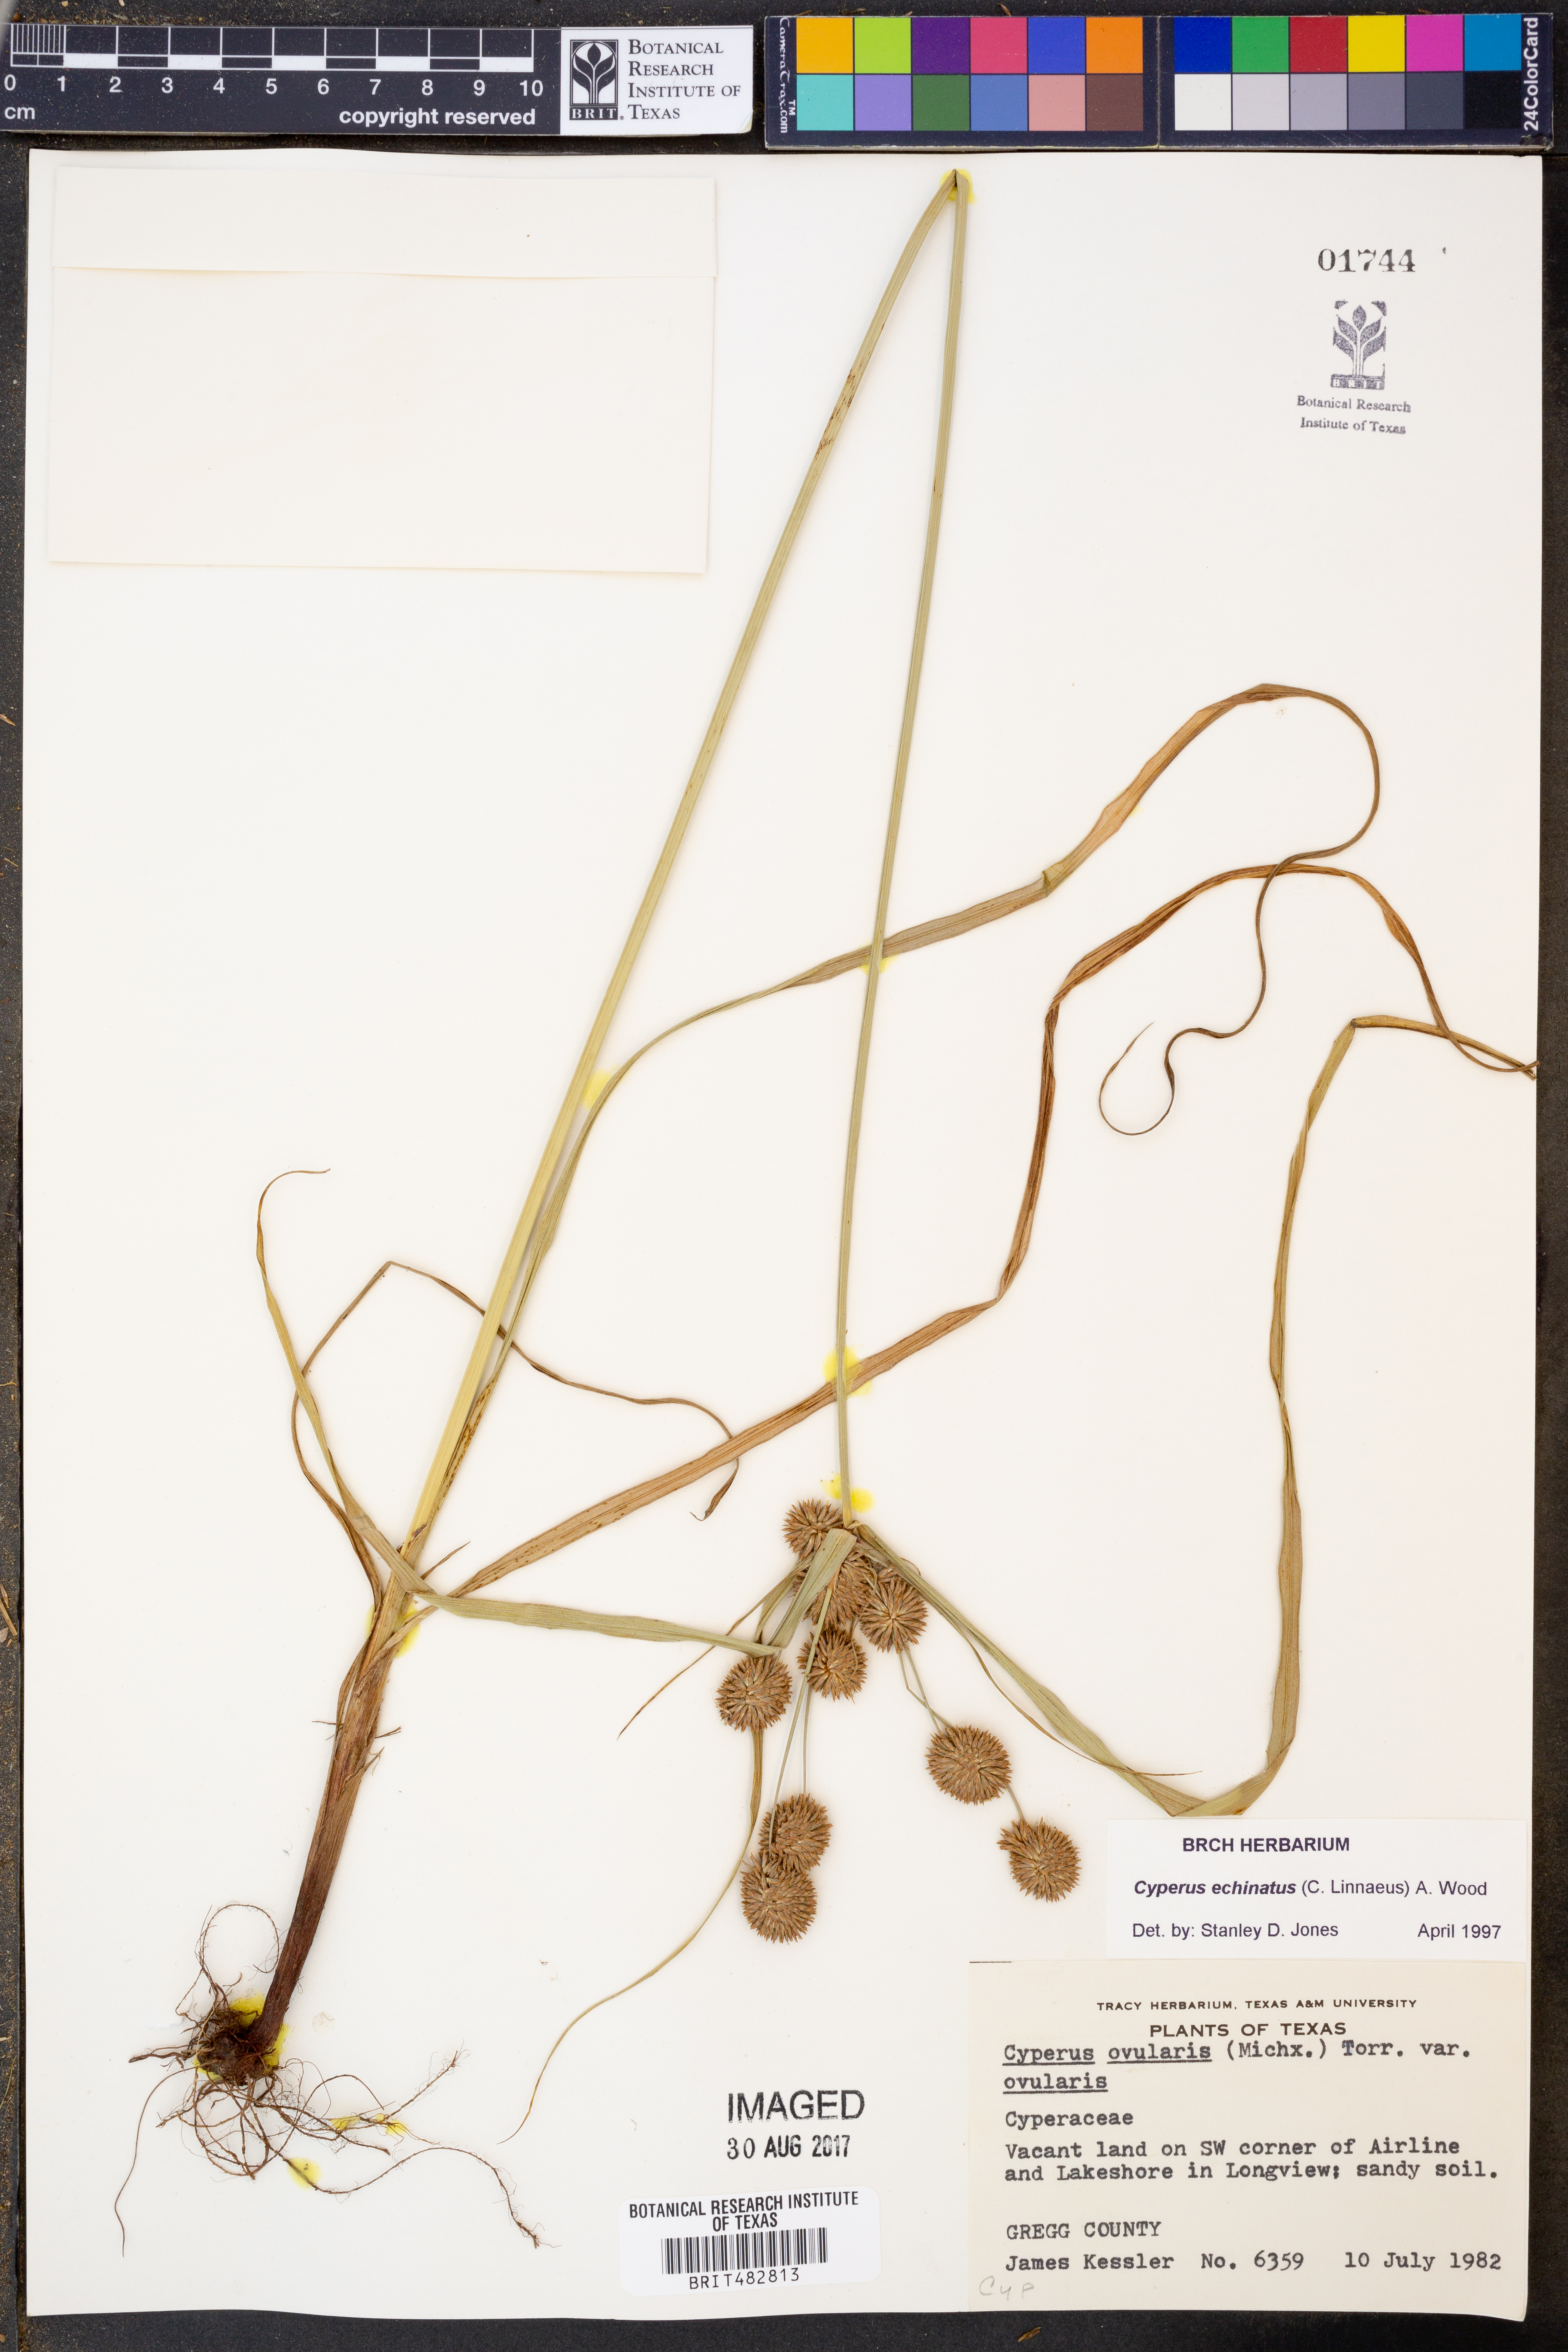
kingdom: Plantae
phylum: Tracheophyta
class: Liliopsida
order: Poales
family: Cyperaceae
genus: Cyperus
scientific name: Cyperus echinatus
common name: Teasel sedge
